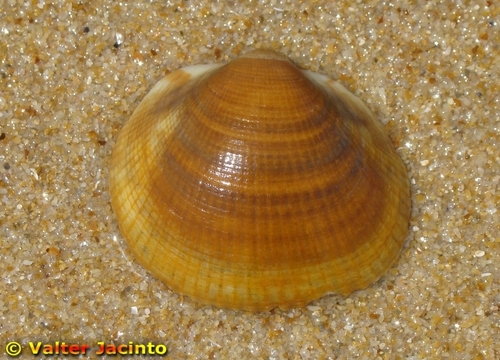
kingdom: Animalia
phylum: Mollusca
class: Bivalvia
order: Arcida
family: Glycymerididae
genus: Glycymeris
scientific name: Glycymeris glycymeris
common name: Dog-cockle
